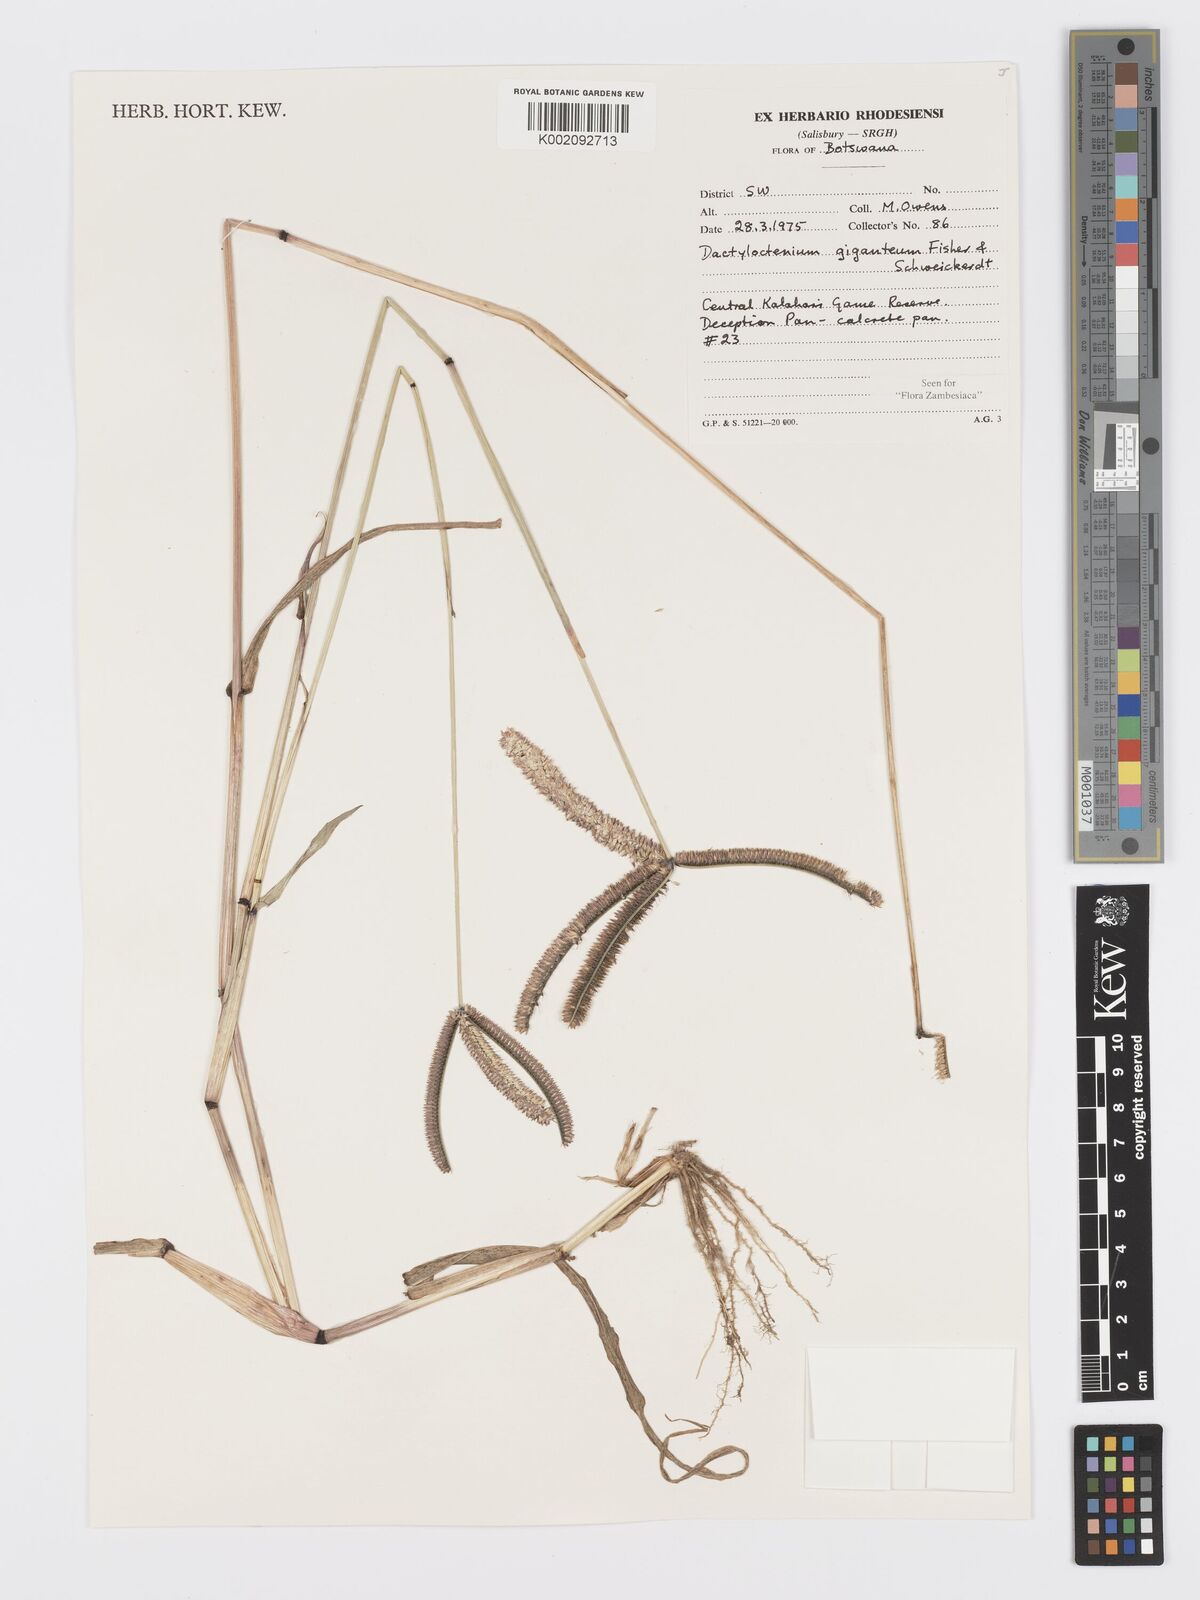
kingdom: Plantae
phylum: Tracheophyta
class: Liliopsida
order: Poales
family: Poaceae
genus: Dactyloctenium
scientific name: Dactyloctenium giganteum
